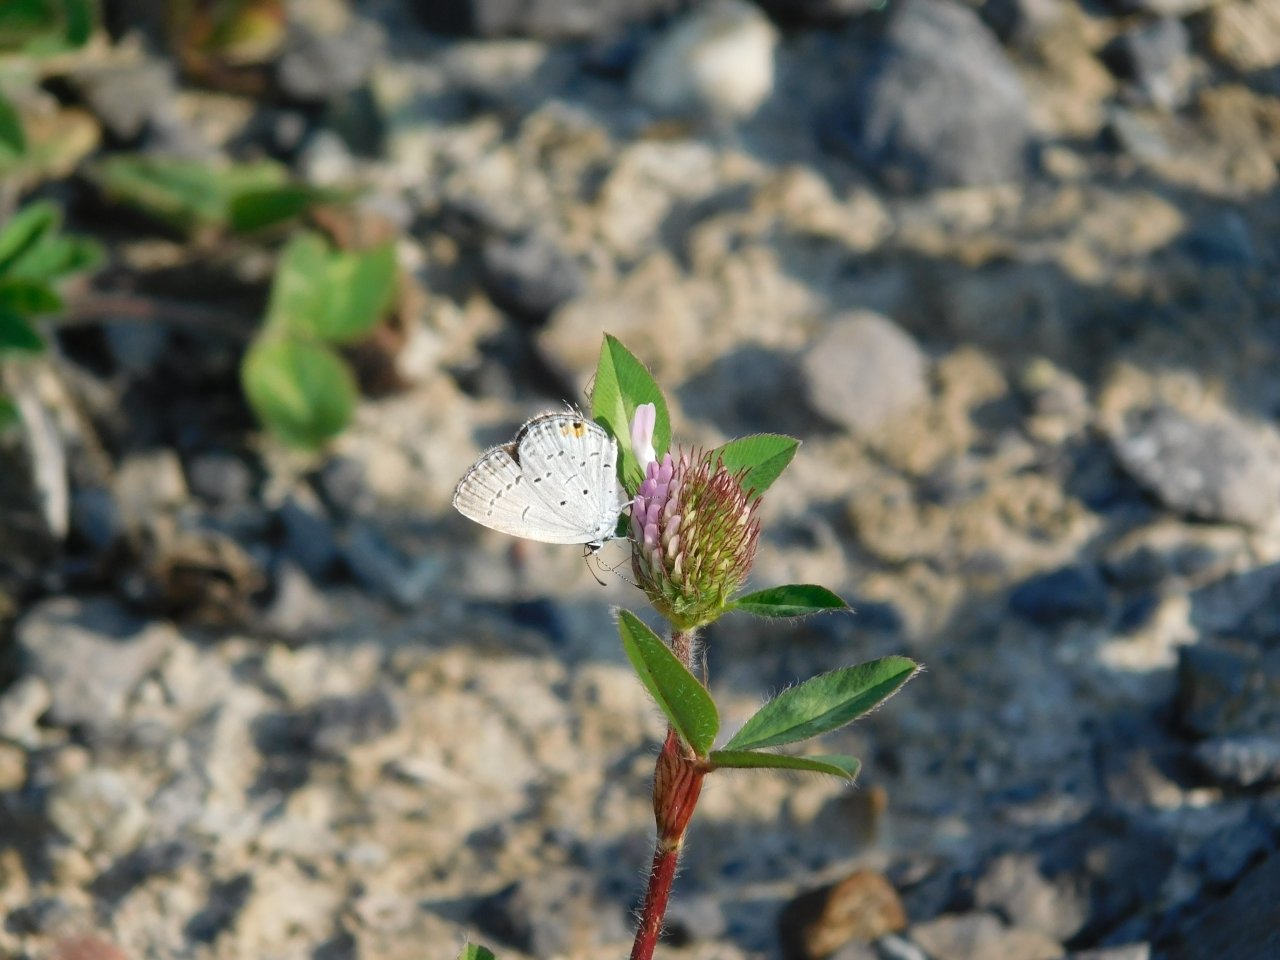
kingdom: Animalia
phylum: Arthropoda
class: Insecta
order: Lepidoptera
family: Lycaenidae
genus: Elkalyce
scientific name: Elkalyce comyntas
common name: Eastern Tailed-Blue
